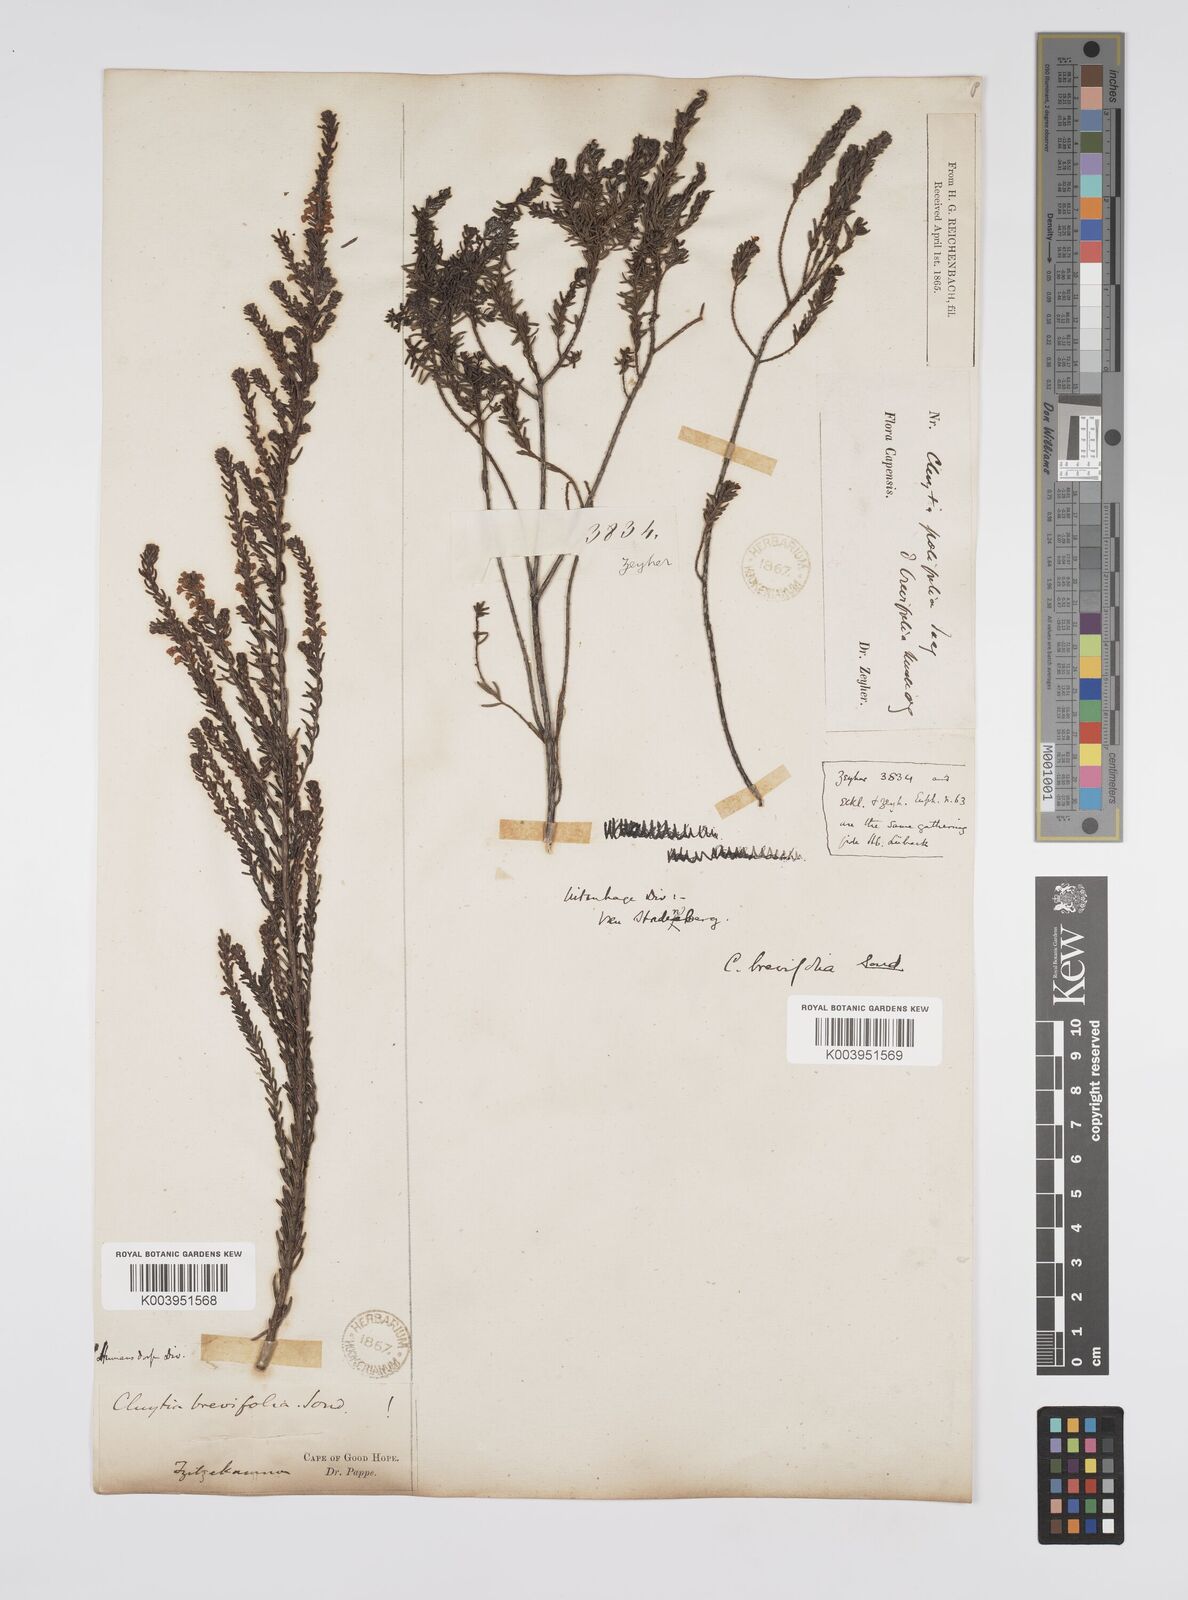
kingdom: Plantae
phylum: Tracheophyta
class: Magnoliopsida
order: Malpighiales
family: Peraceae
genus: Clutia
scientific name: Clutia brevifolia
